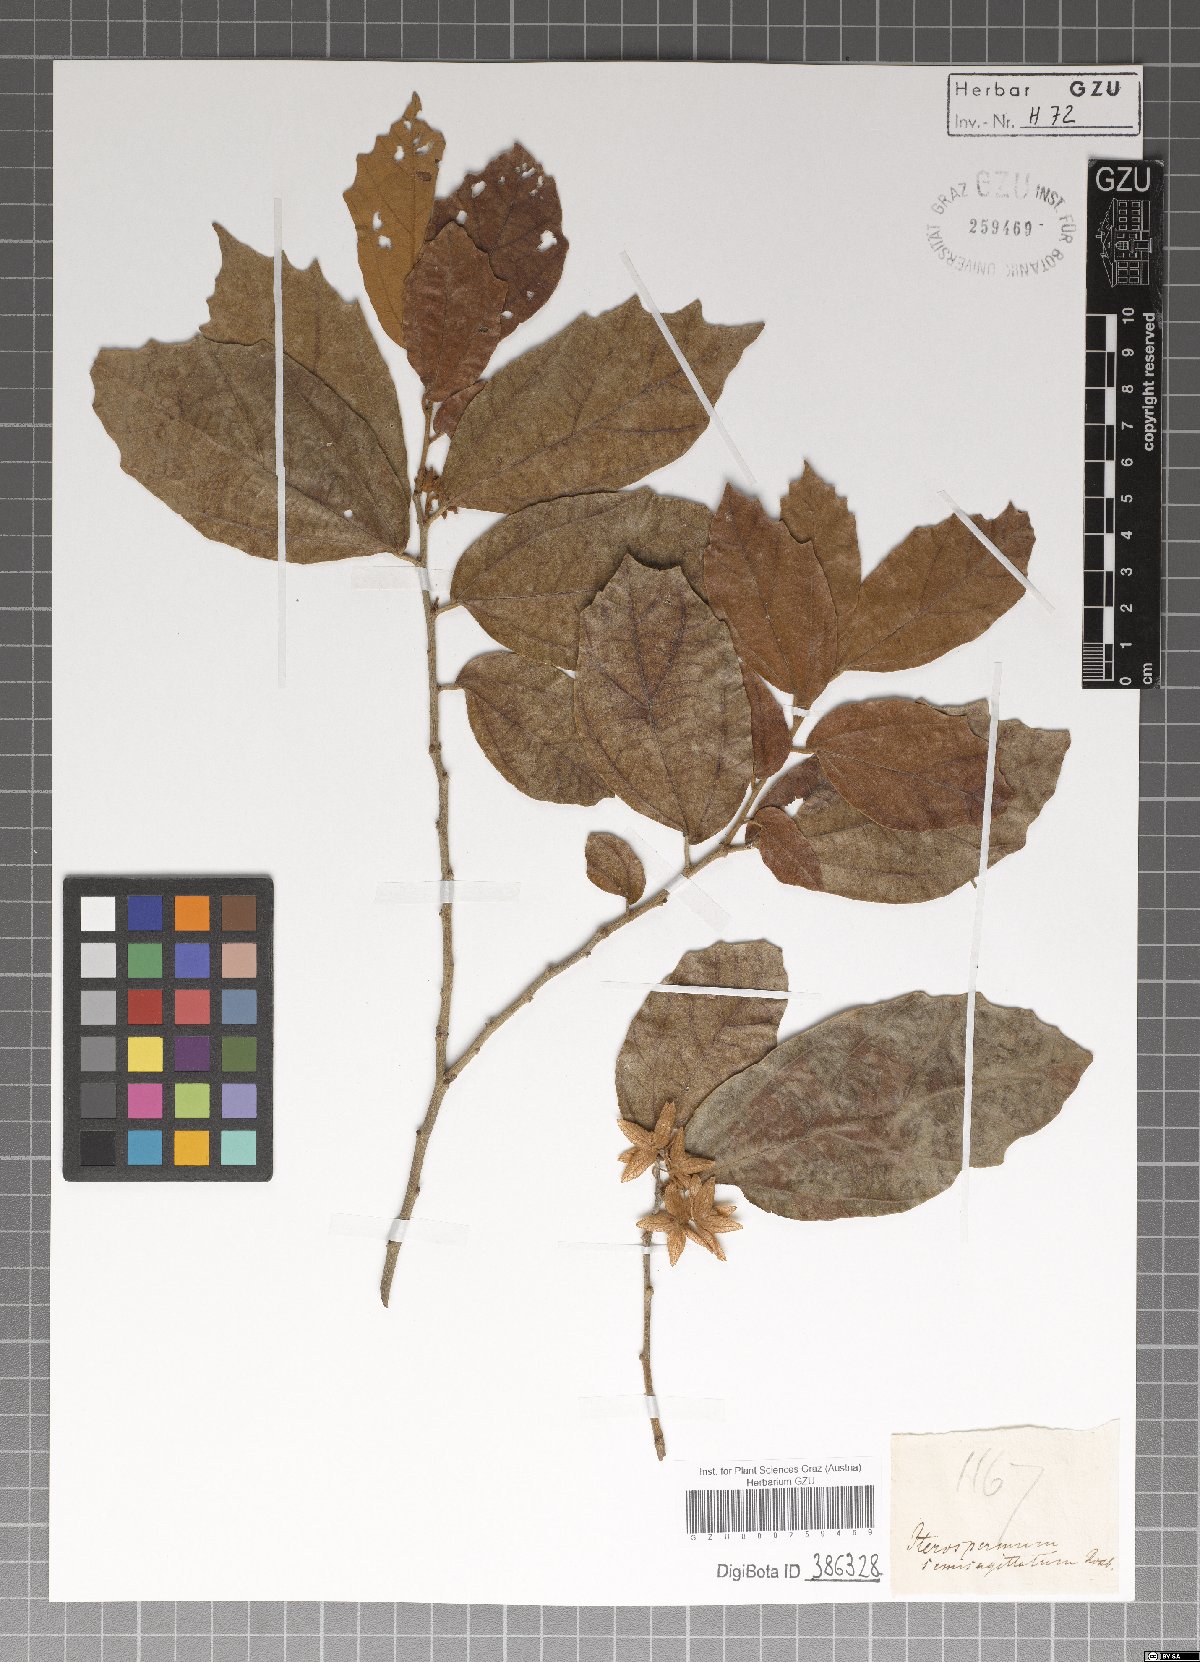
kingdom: Plantae
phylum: Tracheophyta
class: Magnoliopsida
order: Malvales
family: Malvaceae
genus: Pterospermum
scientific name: Pterospermum
